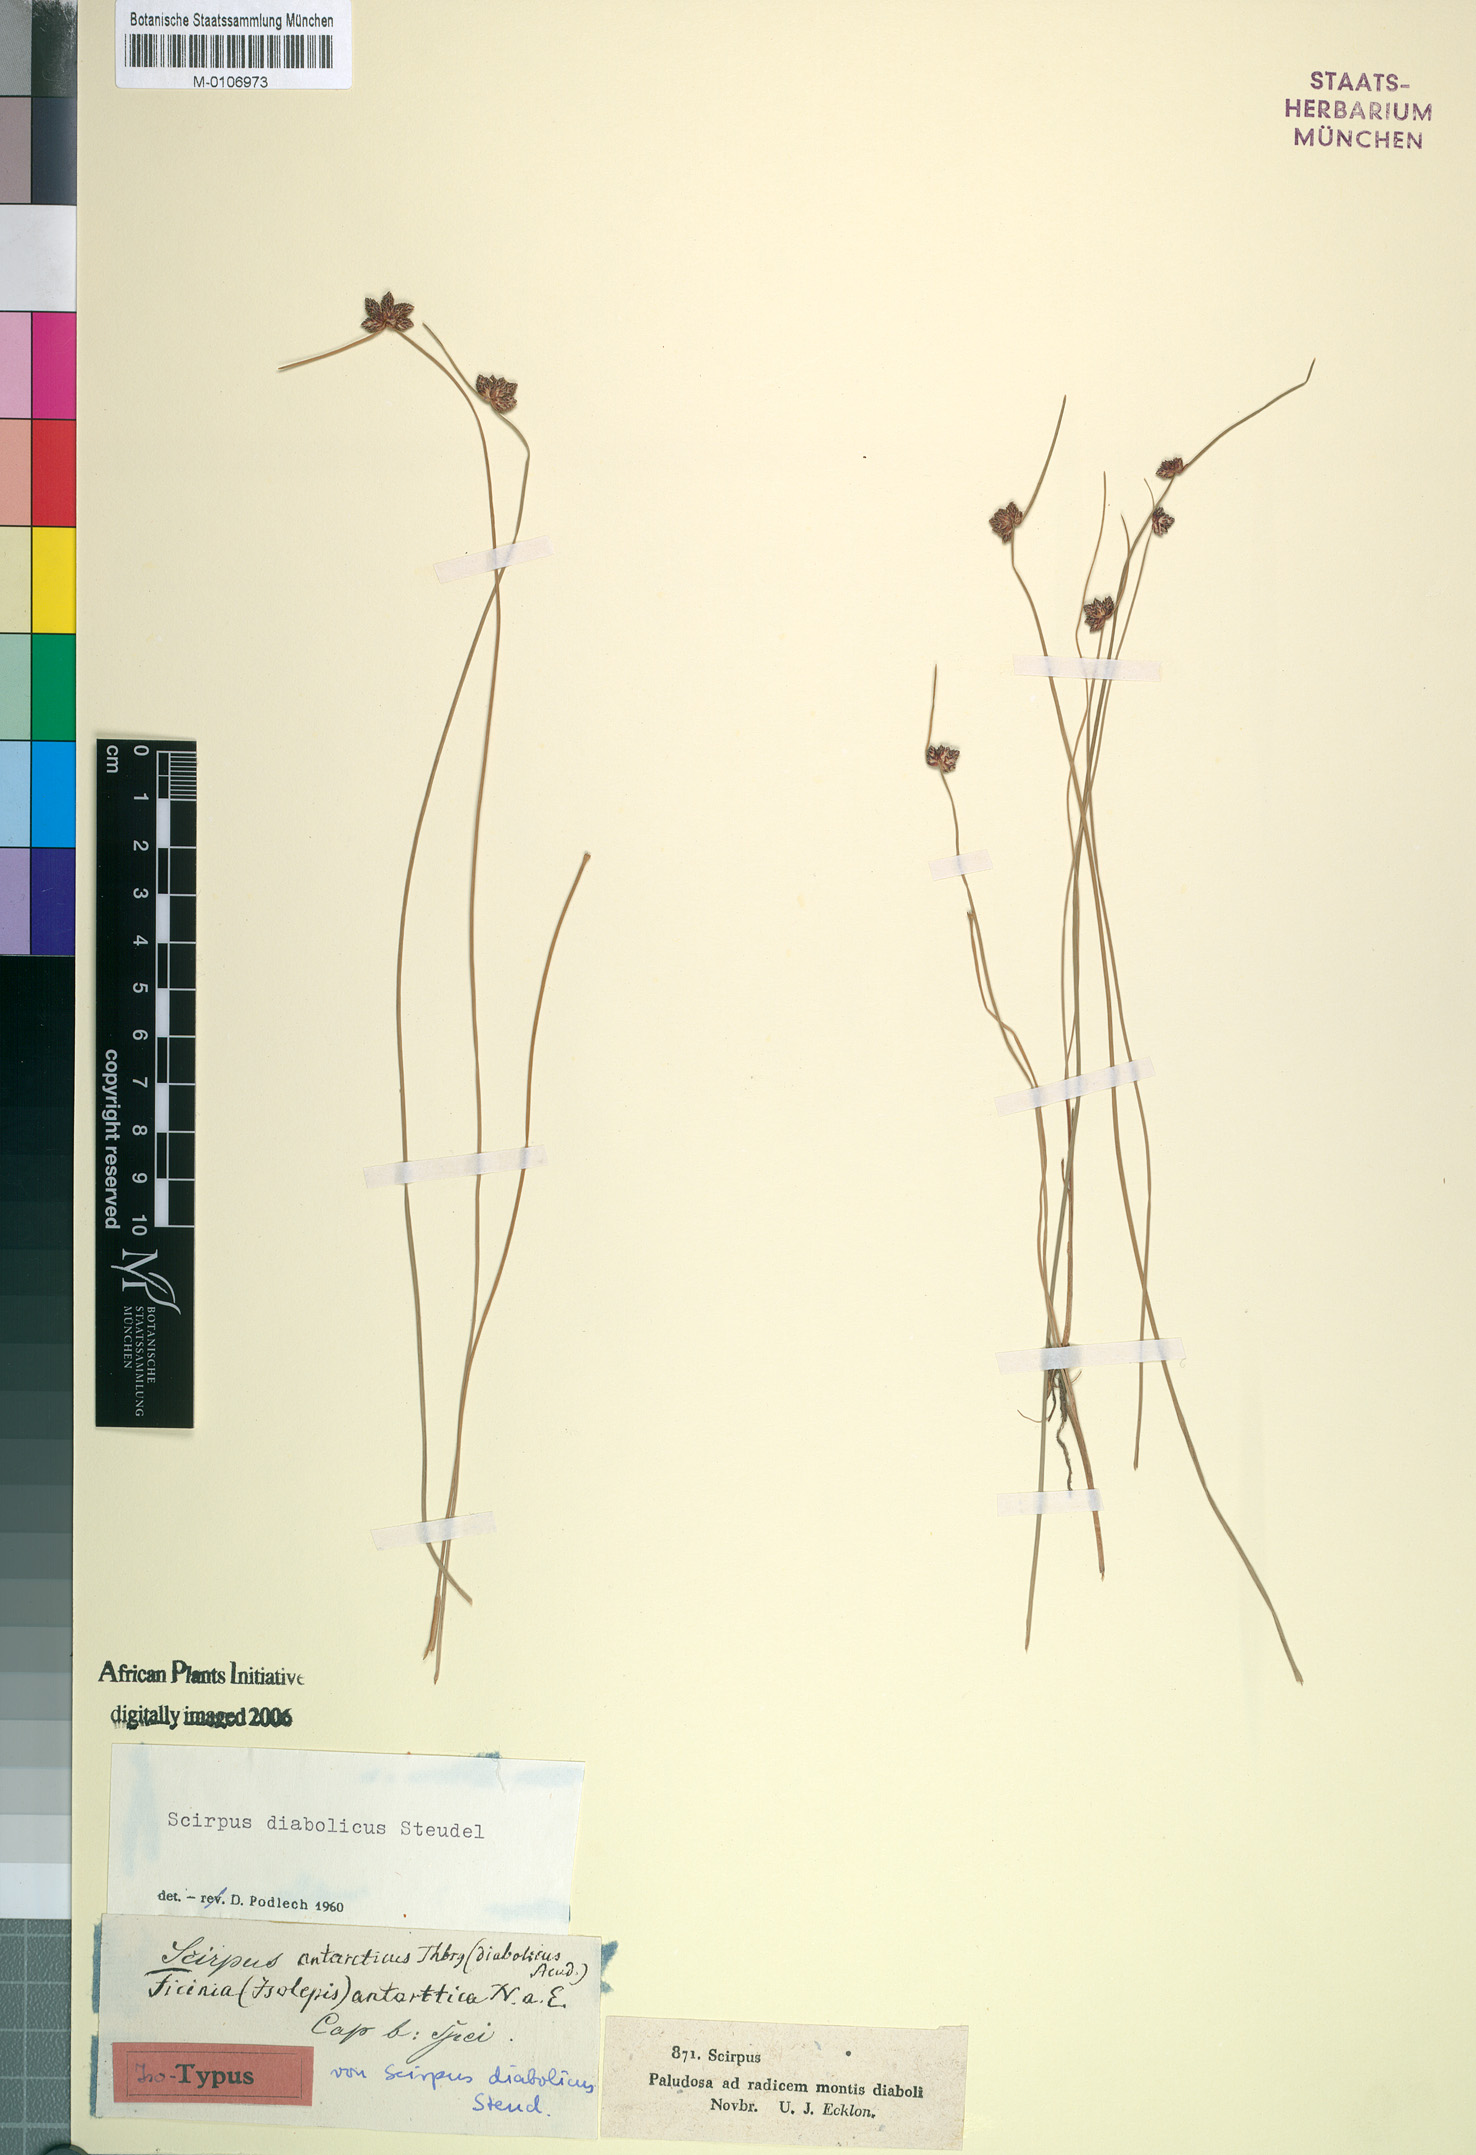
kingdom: Plantae
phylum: Tracheophyta
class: Liliopsida
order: Poales
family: Cyperaceae
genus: Isolepis
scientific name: Isolepis diabolica
